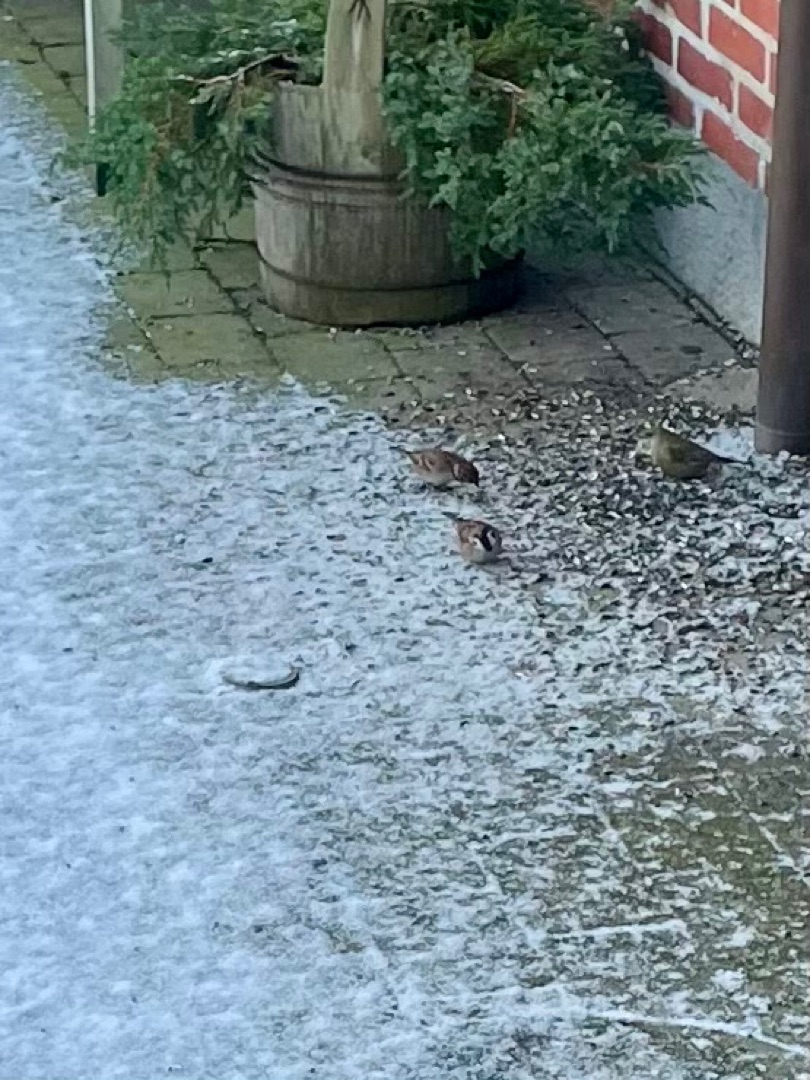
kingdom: Animalia
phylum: Chordata
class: Aves
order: Passeriformes
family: Passeridae
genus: Passer
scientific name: Passer montanus
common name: Skovspurv
